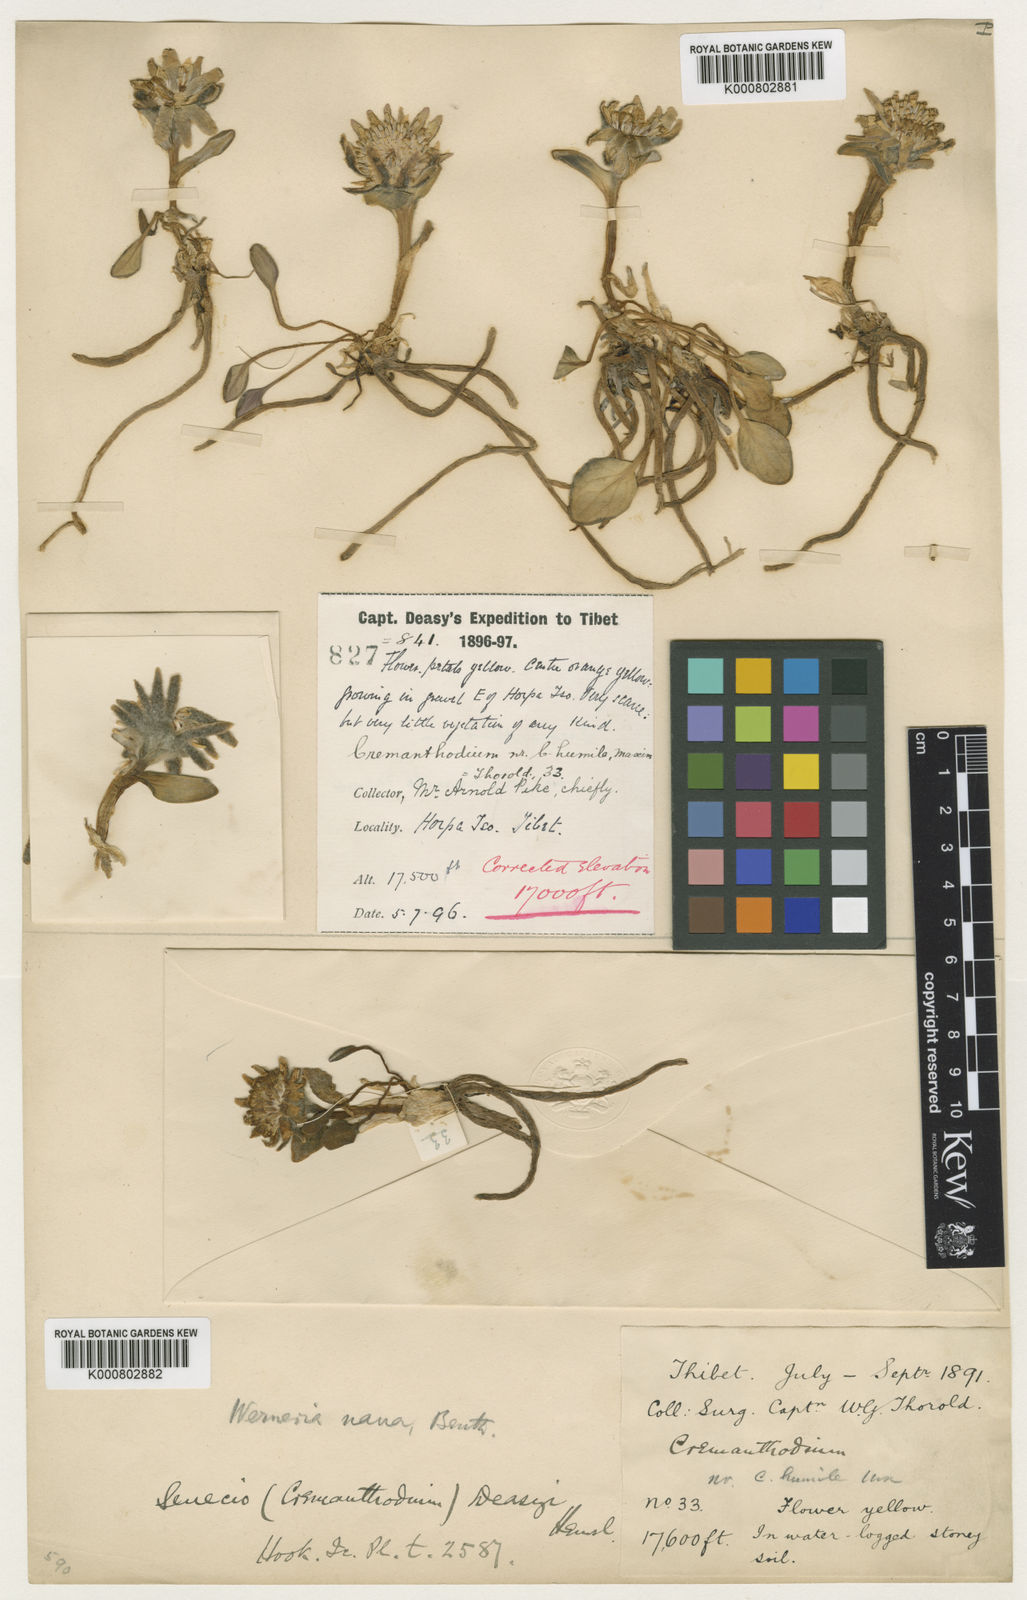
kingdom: Plantae
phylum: Tracheophyta
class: Magnoliopsida
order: Asterales
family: Asteraceae
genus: Cremanthodium
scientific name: Cremanthodium nanum
